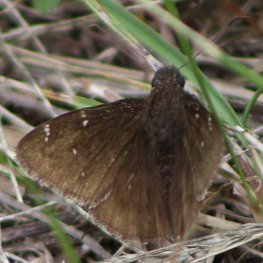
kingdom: Animalia
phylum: Arthropoda
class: Insecta
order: Lepidoptera
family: Hesperiidae
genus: Autochton
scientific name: Autochton
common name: Northern Cloudywing
